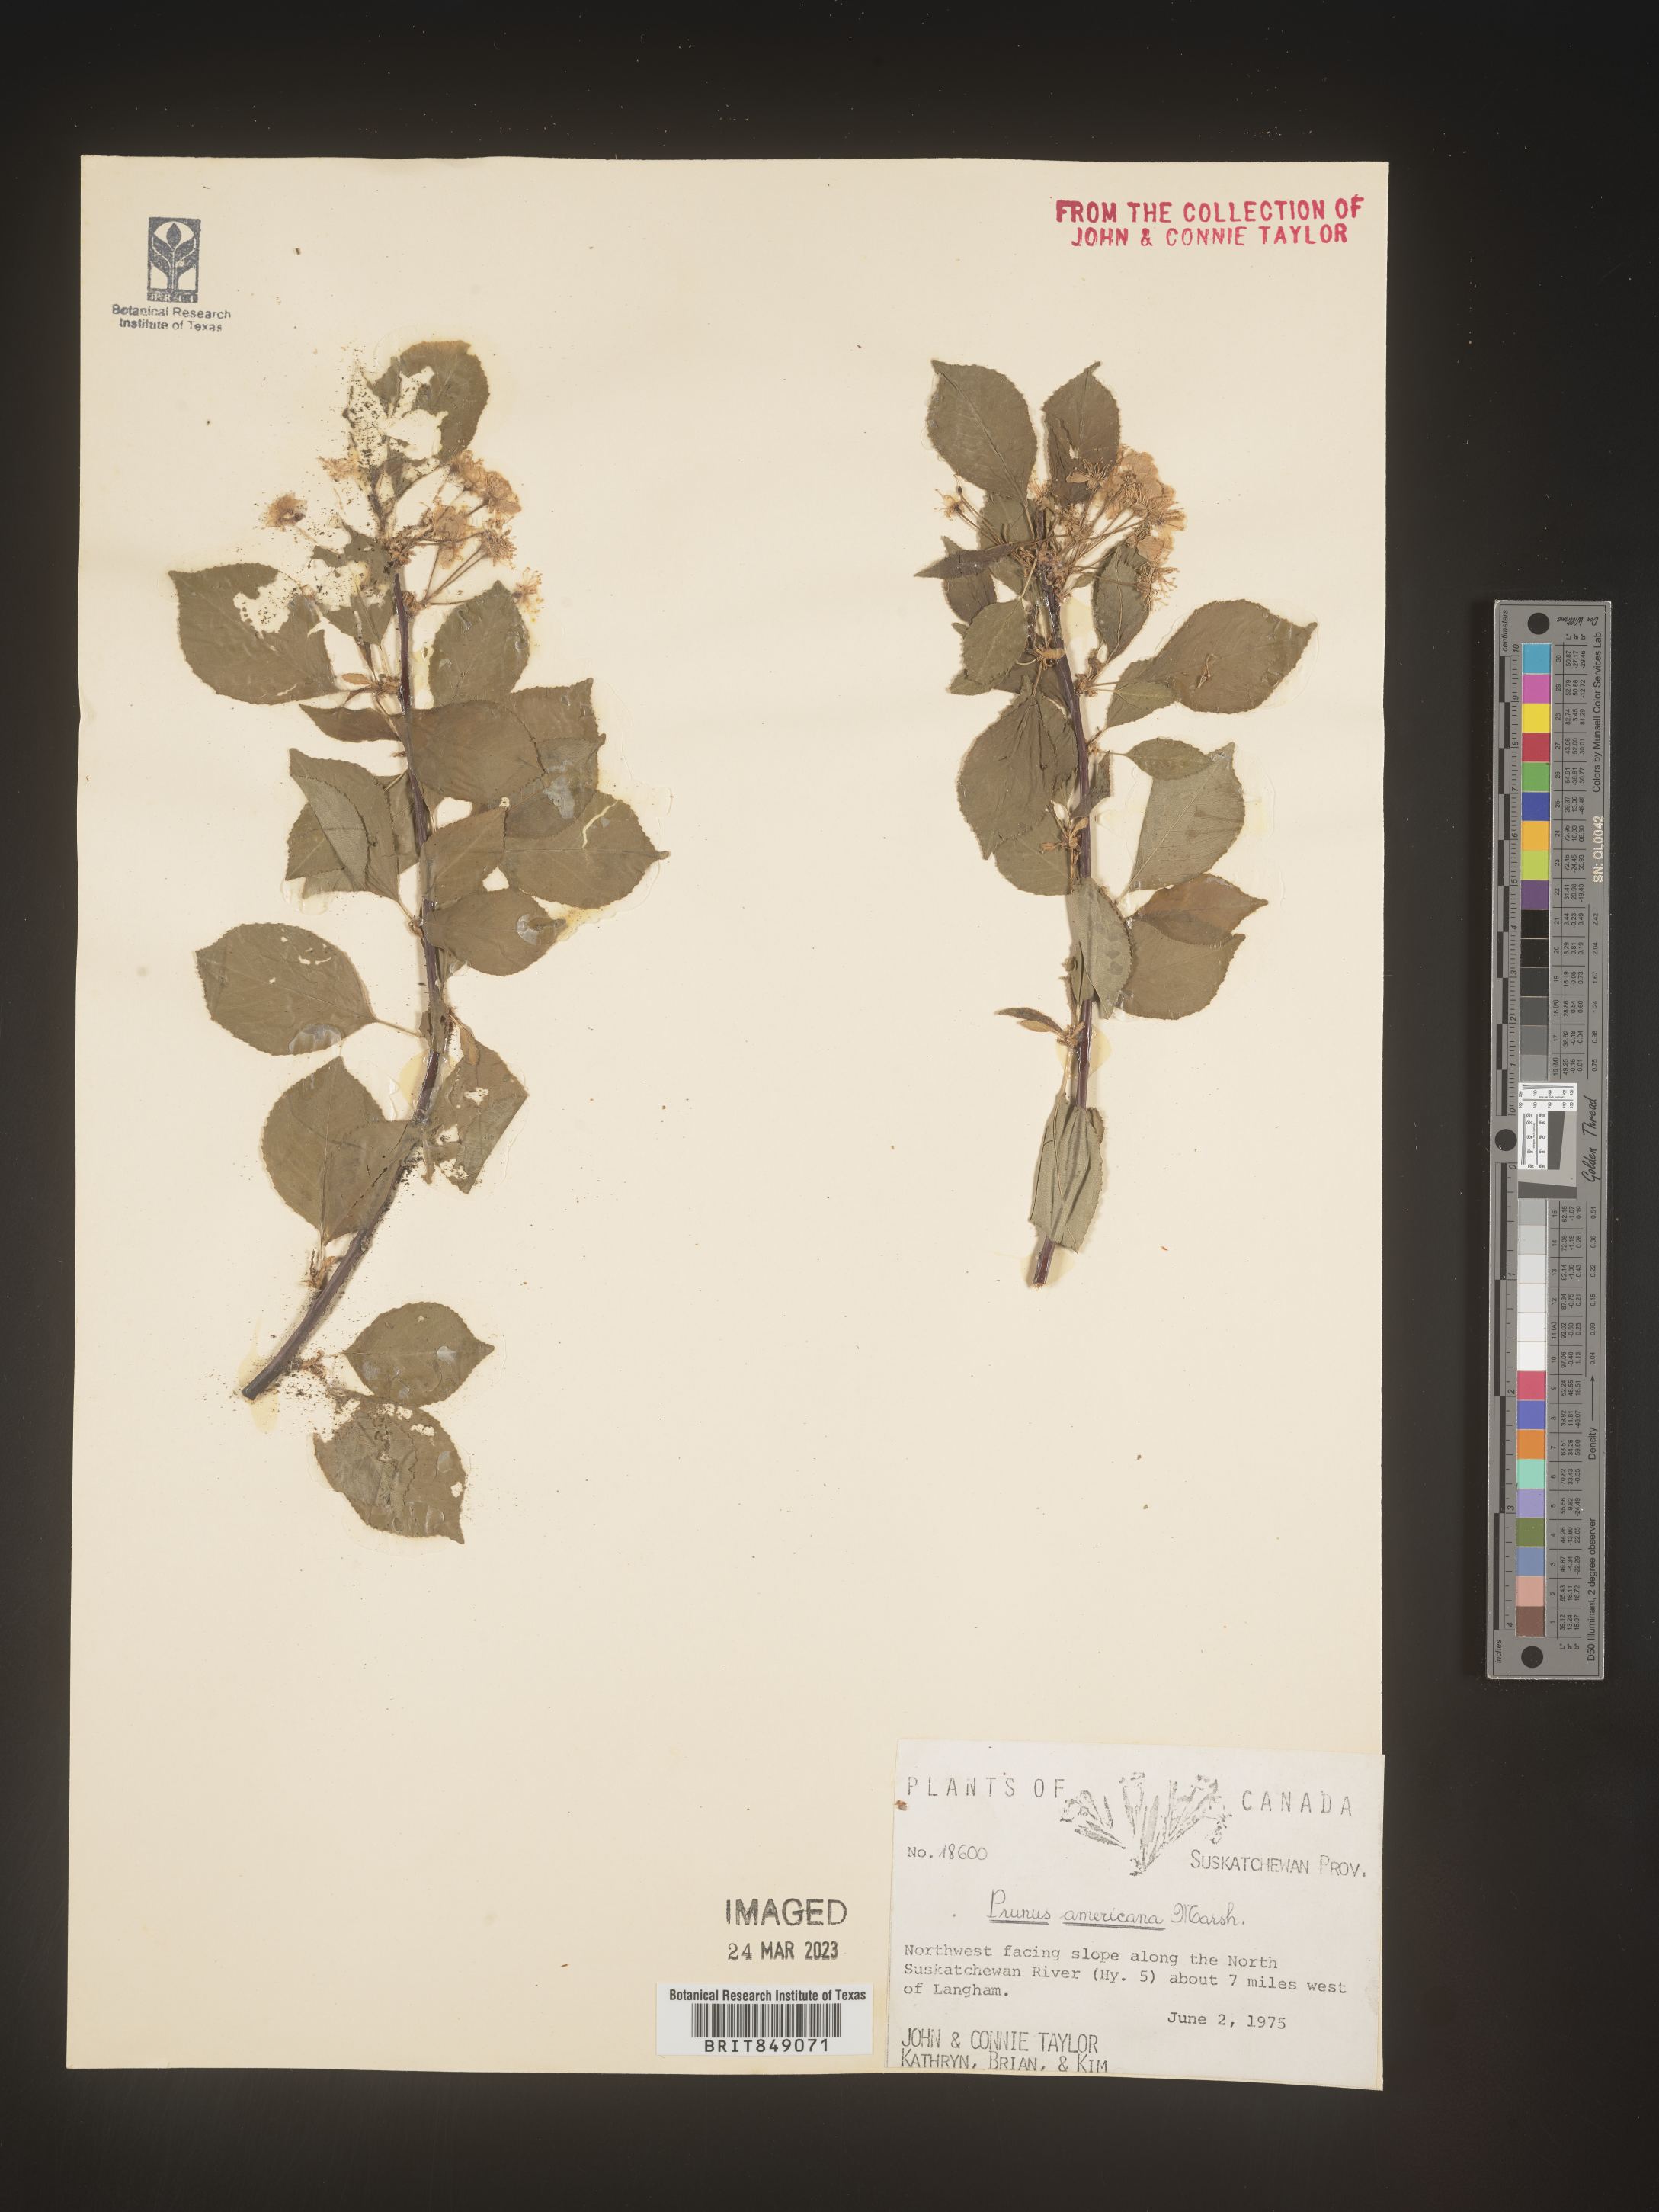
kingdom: Plantae
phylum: Tracheophyta
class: Magnoliopsida
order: Rosales
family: Rosaceae
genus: Prunus
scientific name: Prunus americana
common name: American plum
